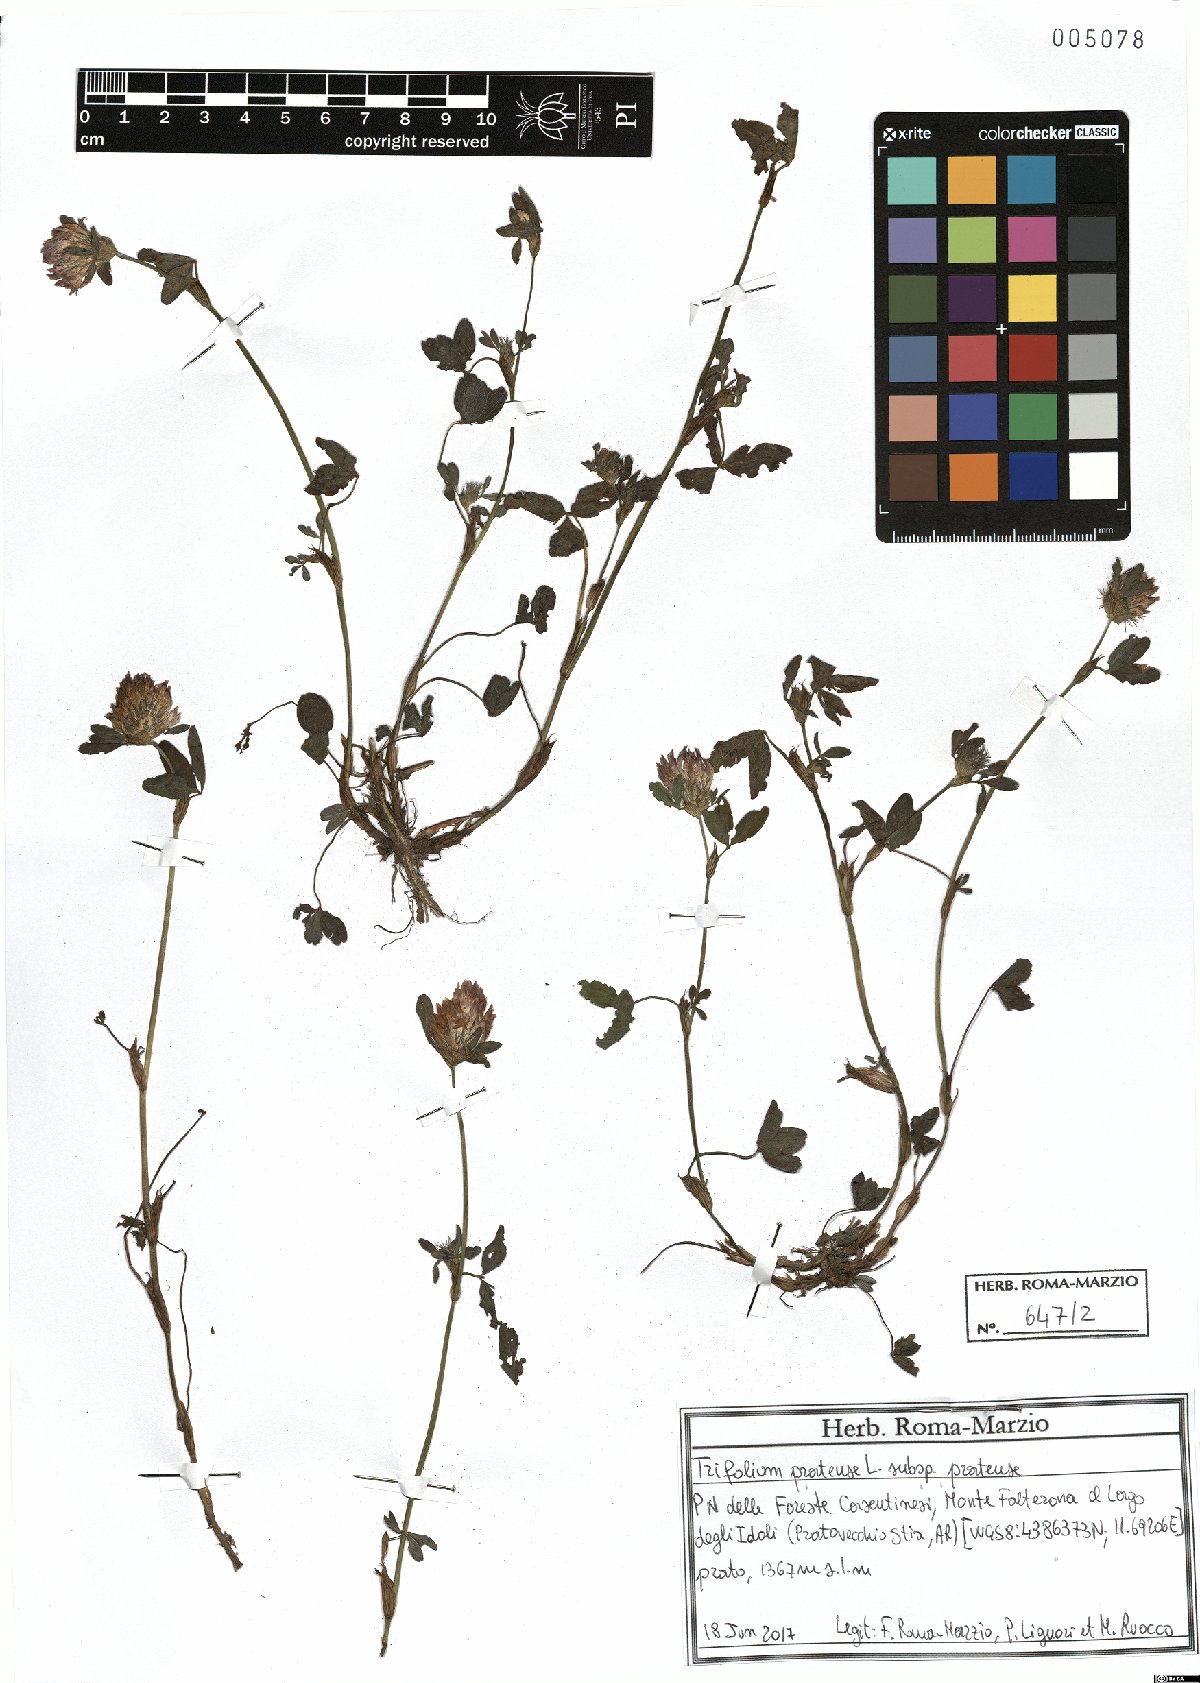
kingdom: Plantae
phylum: Tracheophyta
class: Magnoliopsida
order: Fabales
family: Fabaceae
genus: Trifolium
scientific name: Trifolium pratense
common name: Red clover
